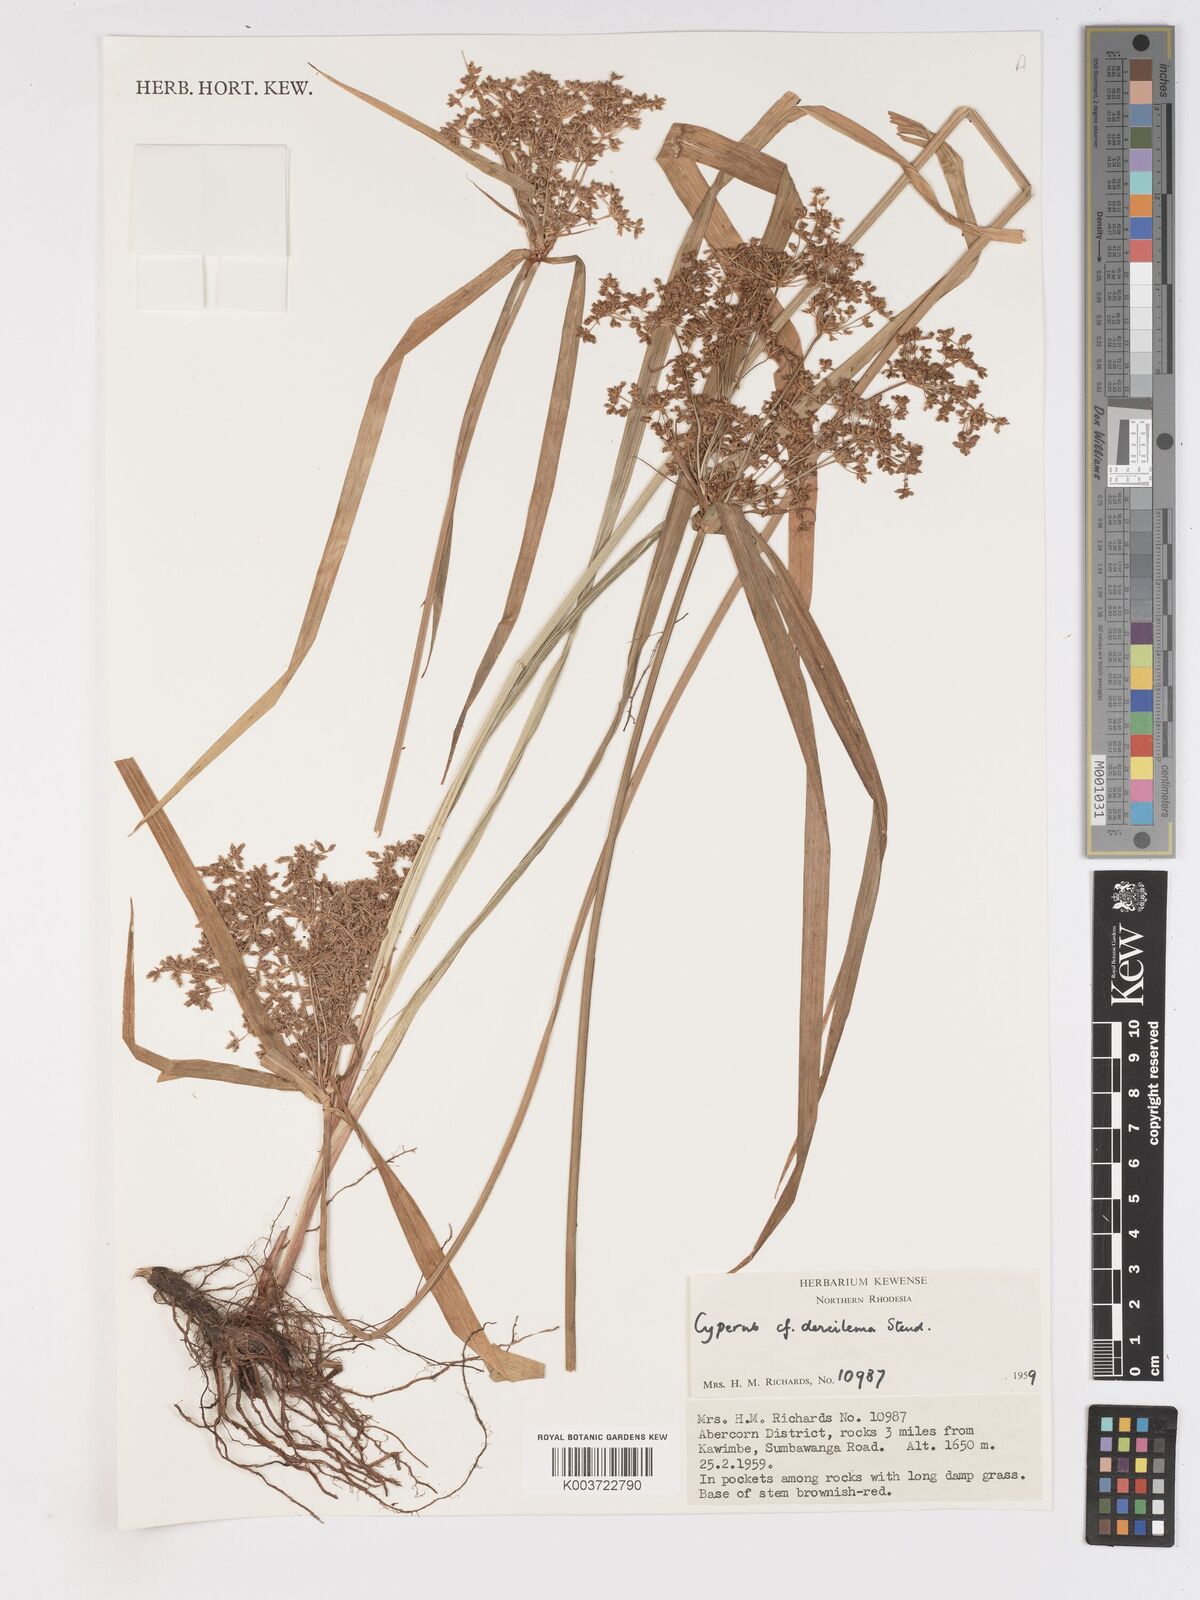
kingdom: Plantae
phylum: Tracheophyta
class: Liliopsida
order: Poales
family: Cyperaceae
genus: Cyperus
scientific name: Cyperus derreilema
